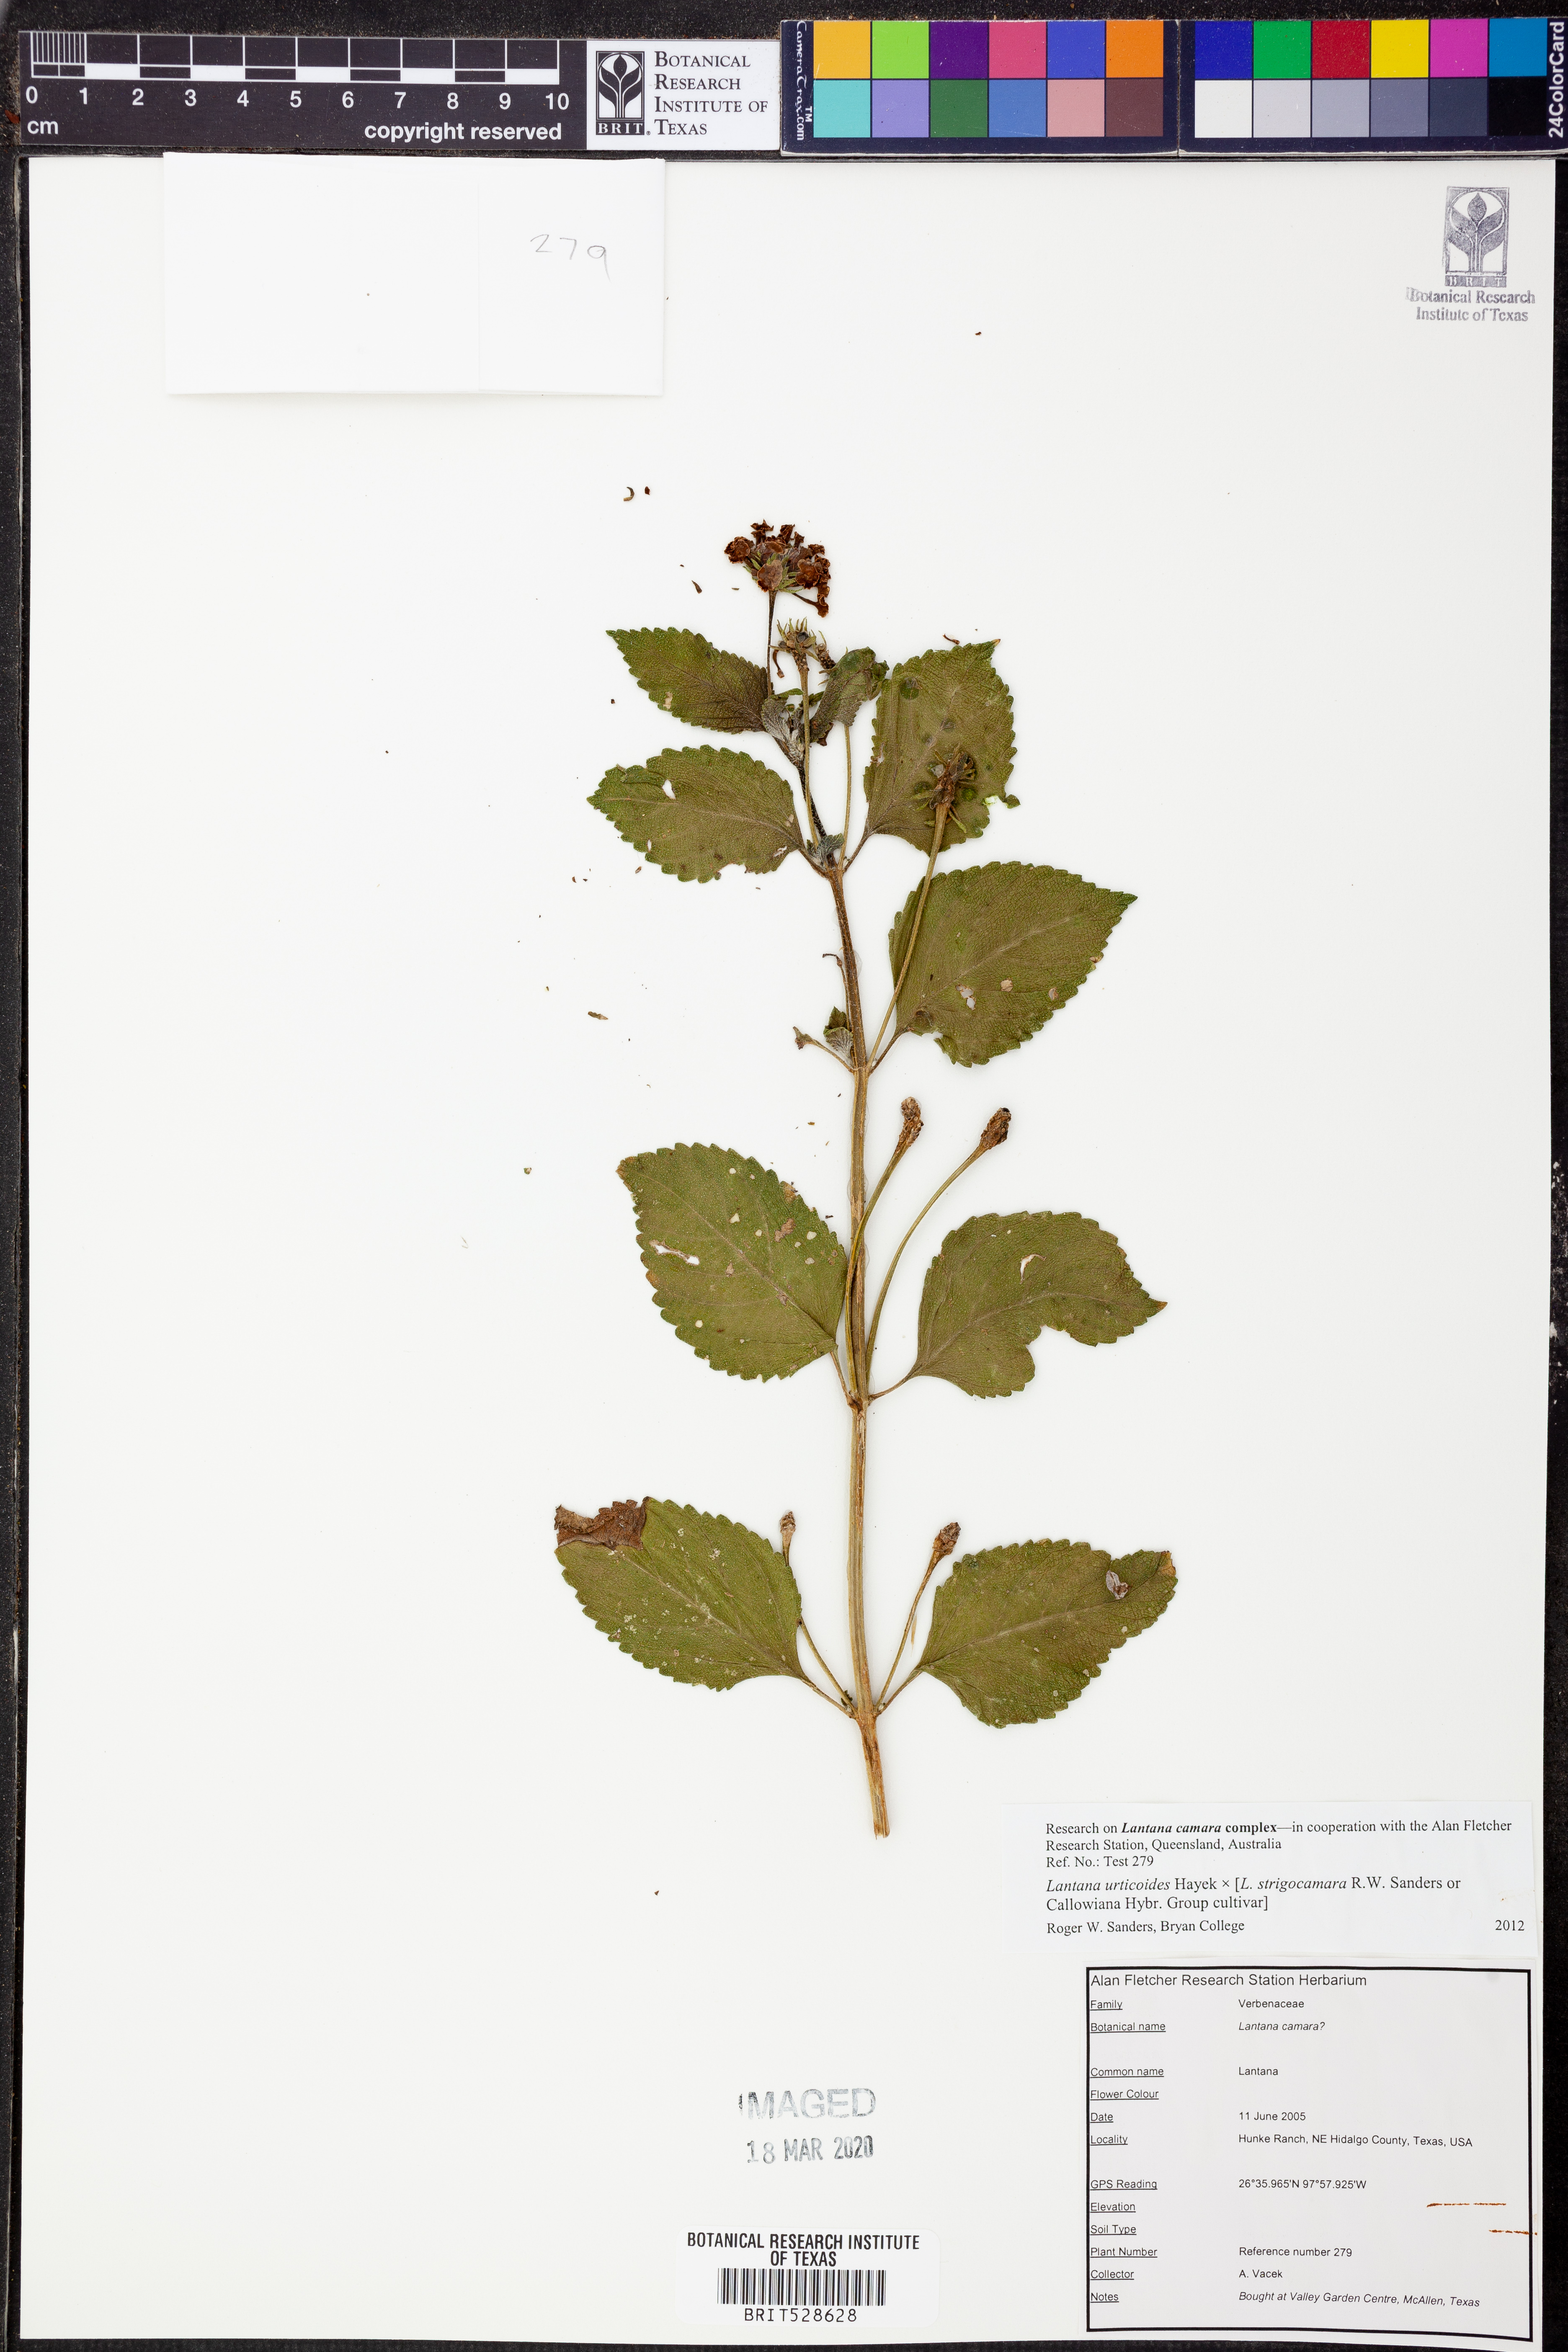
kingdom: Plantae
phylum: Tracheophyta
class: Magnoliopsida
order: Lamiales
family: Verbenaceae
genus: Lantana
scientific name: Lantana urticoides
